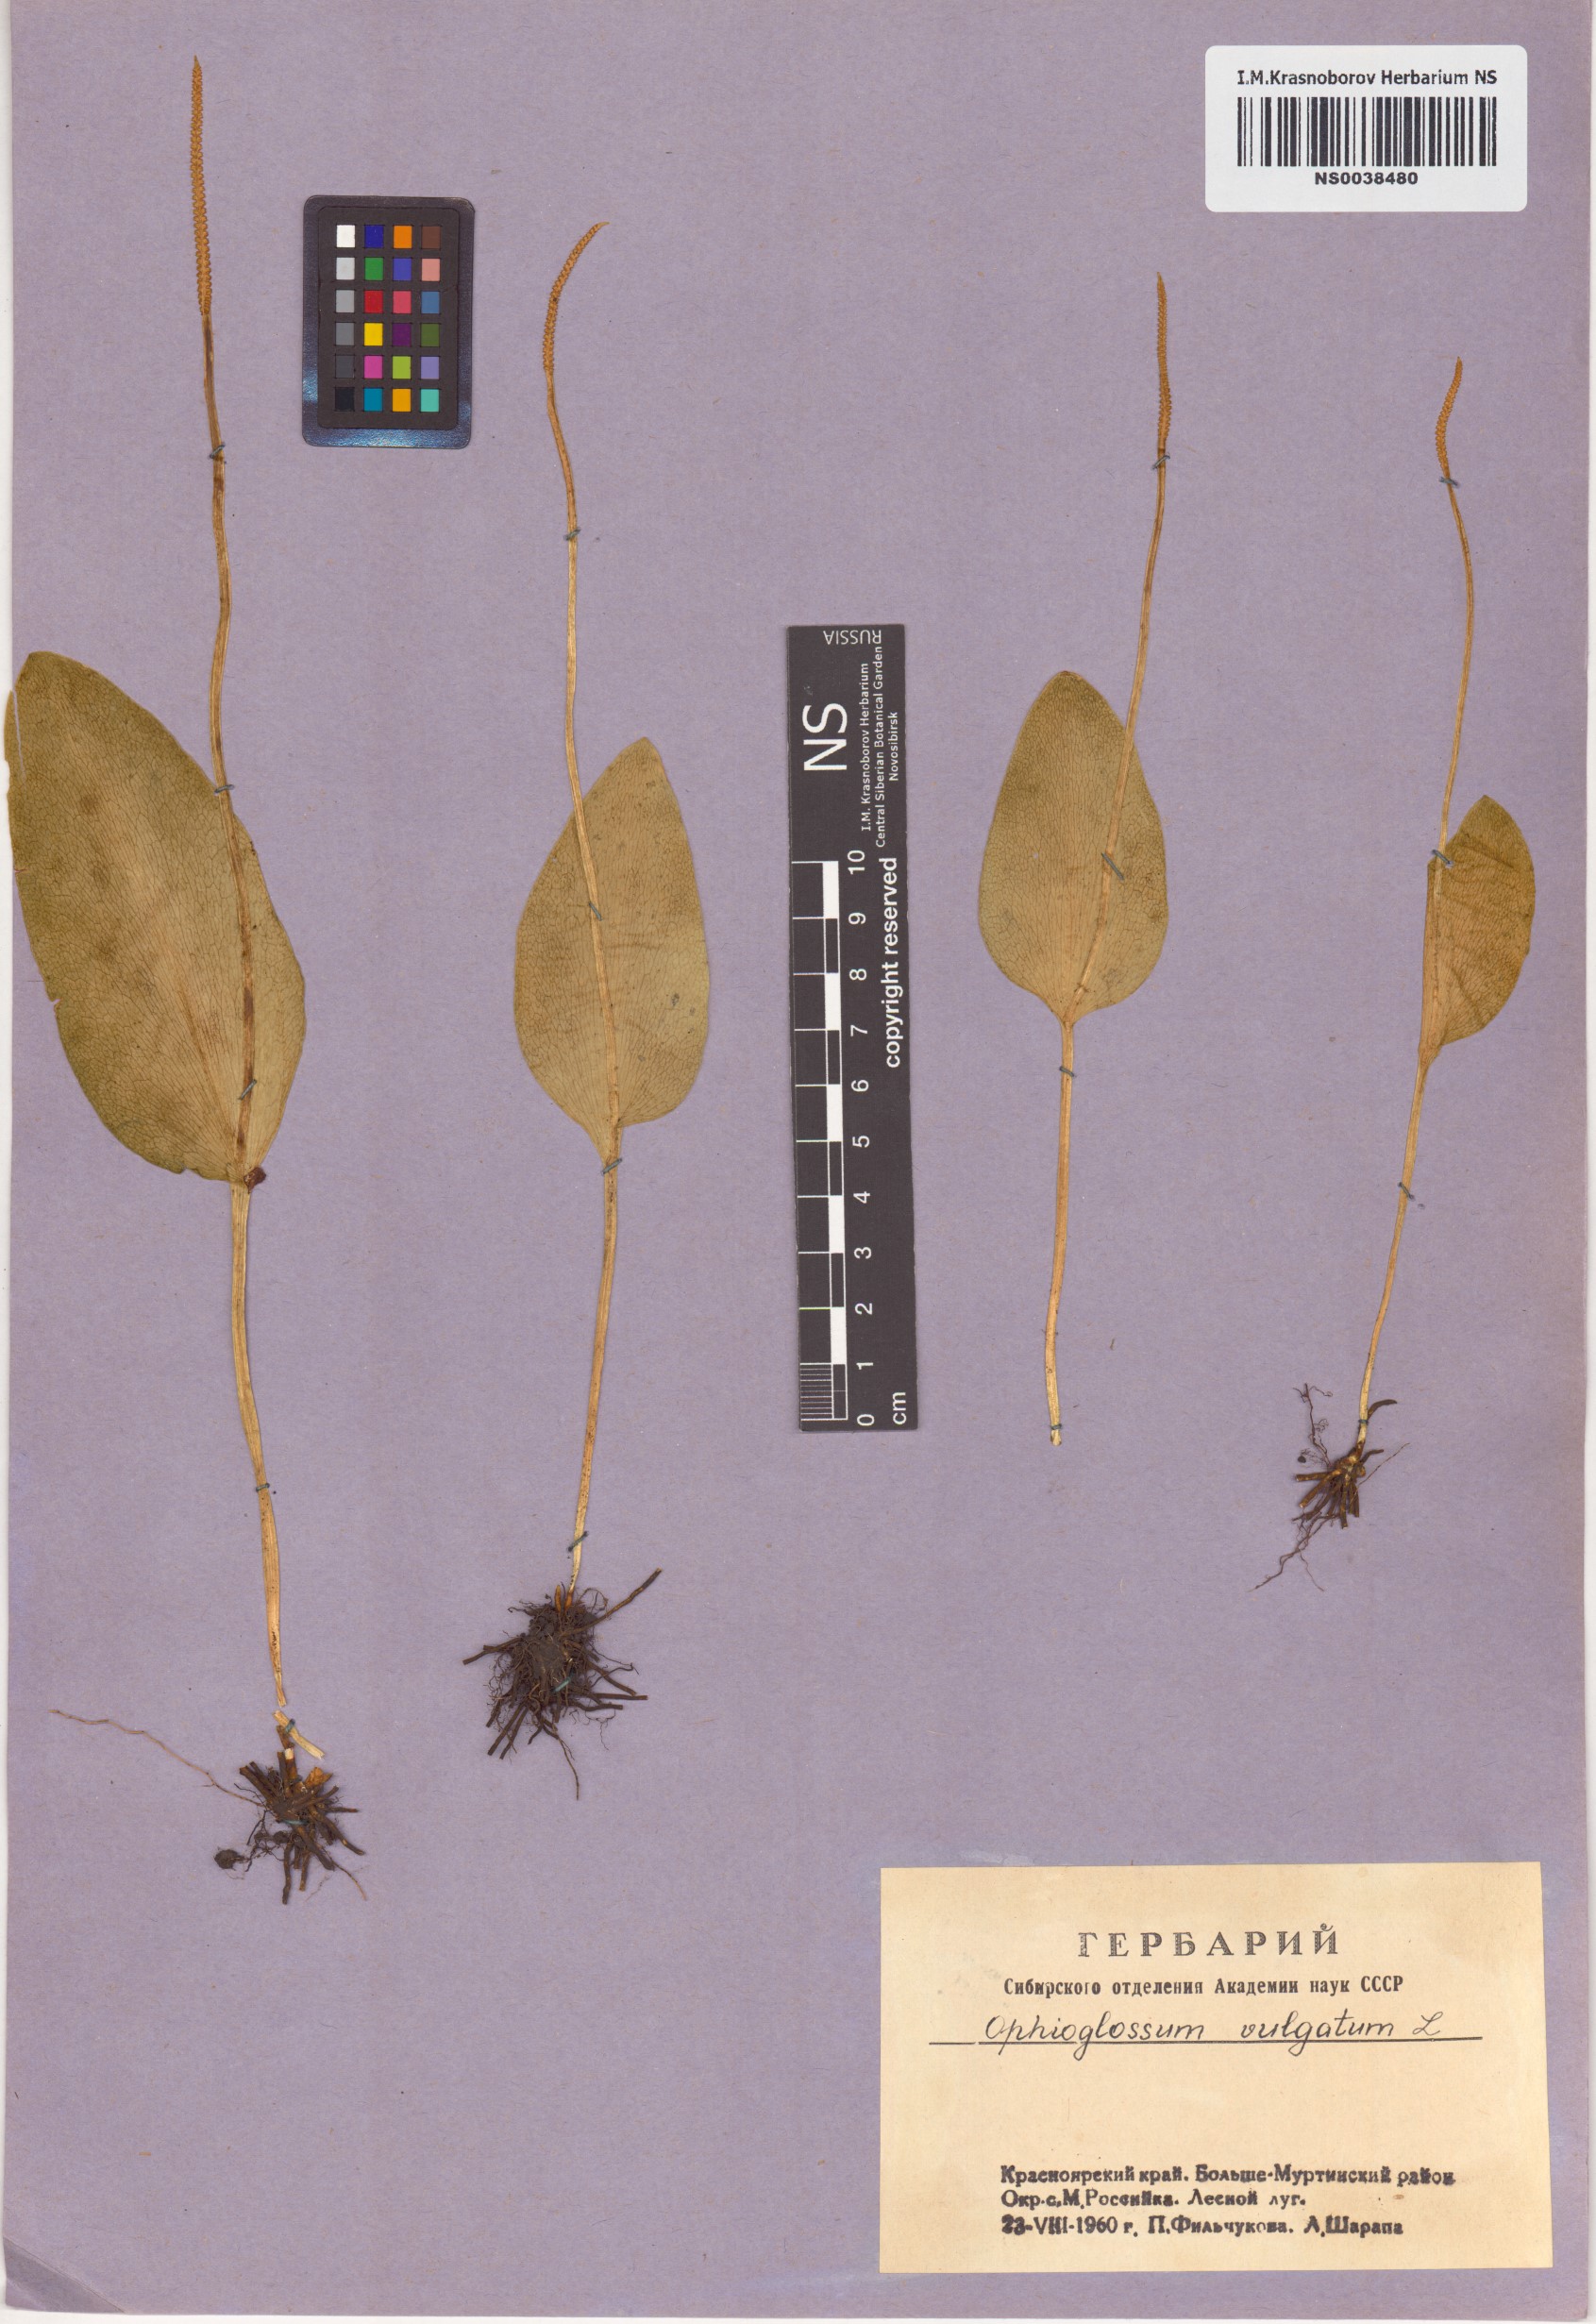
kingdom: Plantae
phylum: Tracheophyta
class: Polypodiopsida
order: Ophioglossales
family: Ophioglossaceae
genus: Ophioglossum
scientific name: Ophioglossum vulgatum
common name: Adder's-tongue
